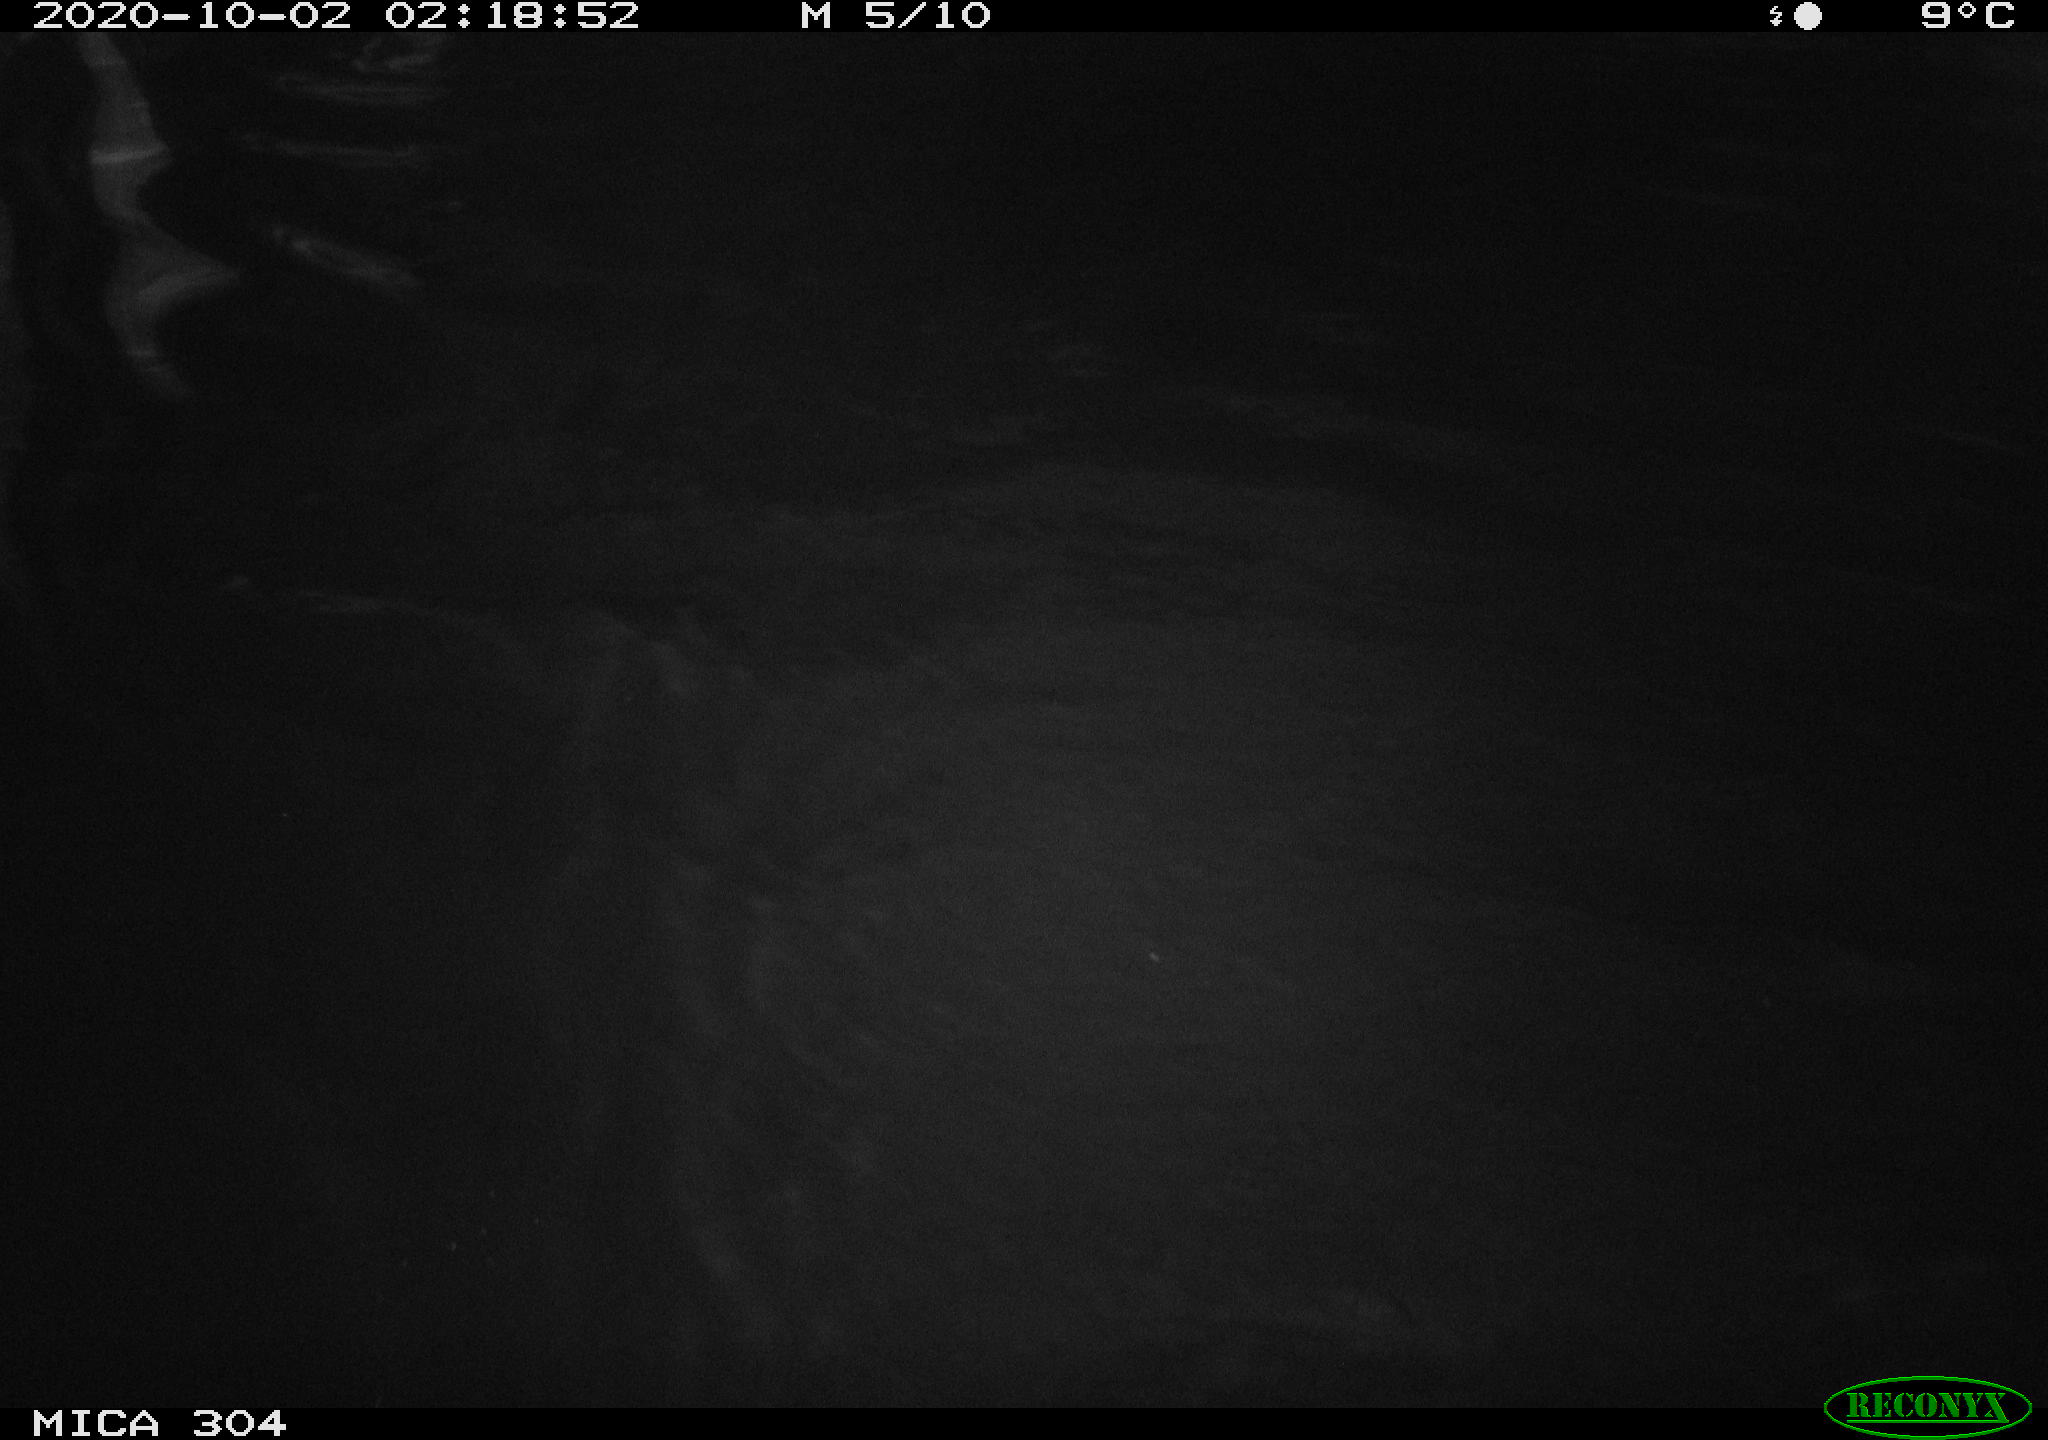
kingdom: Animalia
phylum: Chordata
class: Mammalia
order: Rodentia
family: Cricetidae
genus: Ondatra
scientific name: Ondatra zibethicus
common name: Muskrat
